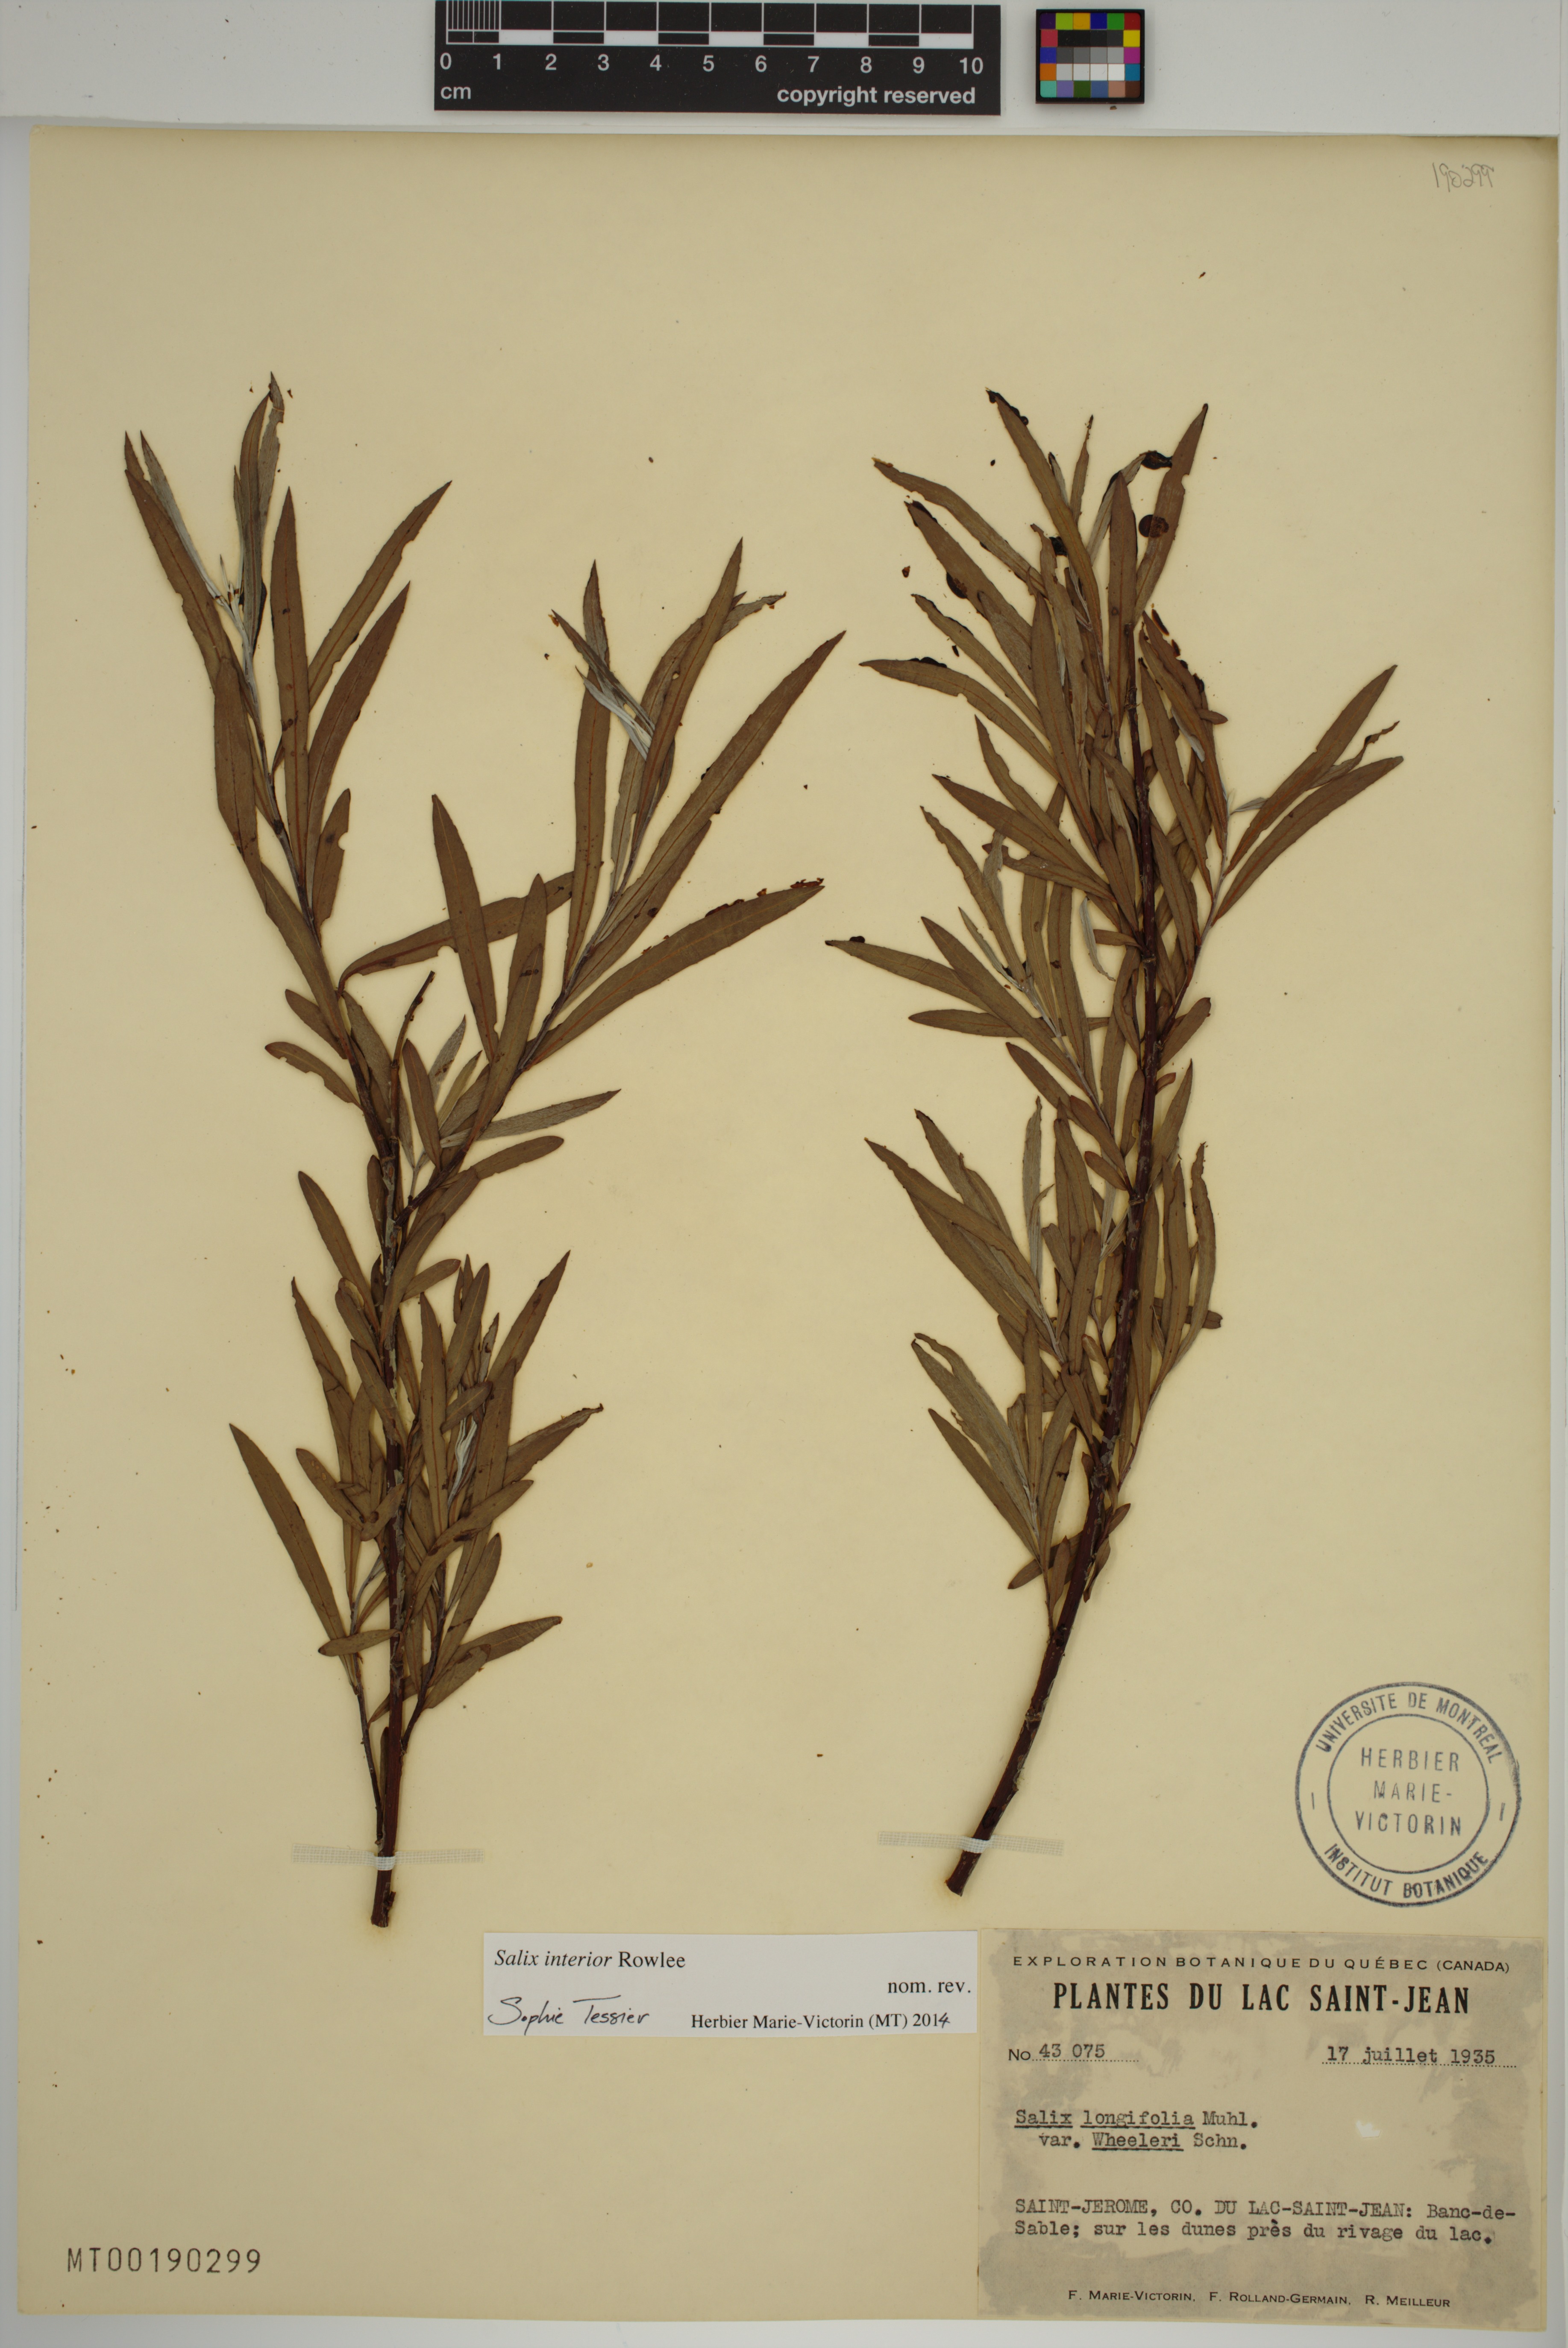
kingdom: Plantae
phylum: Tracheophyta
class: Magnoliopsida
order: Malpighiales
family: Salicaceae
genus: Salix
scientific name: Salix interior
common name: Sandbar willow
